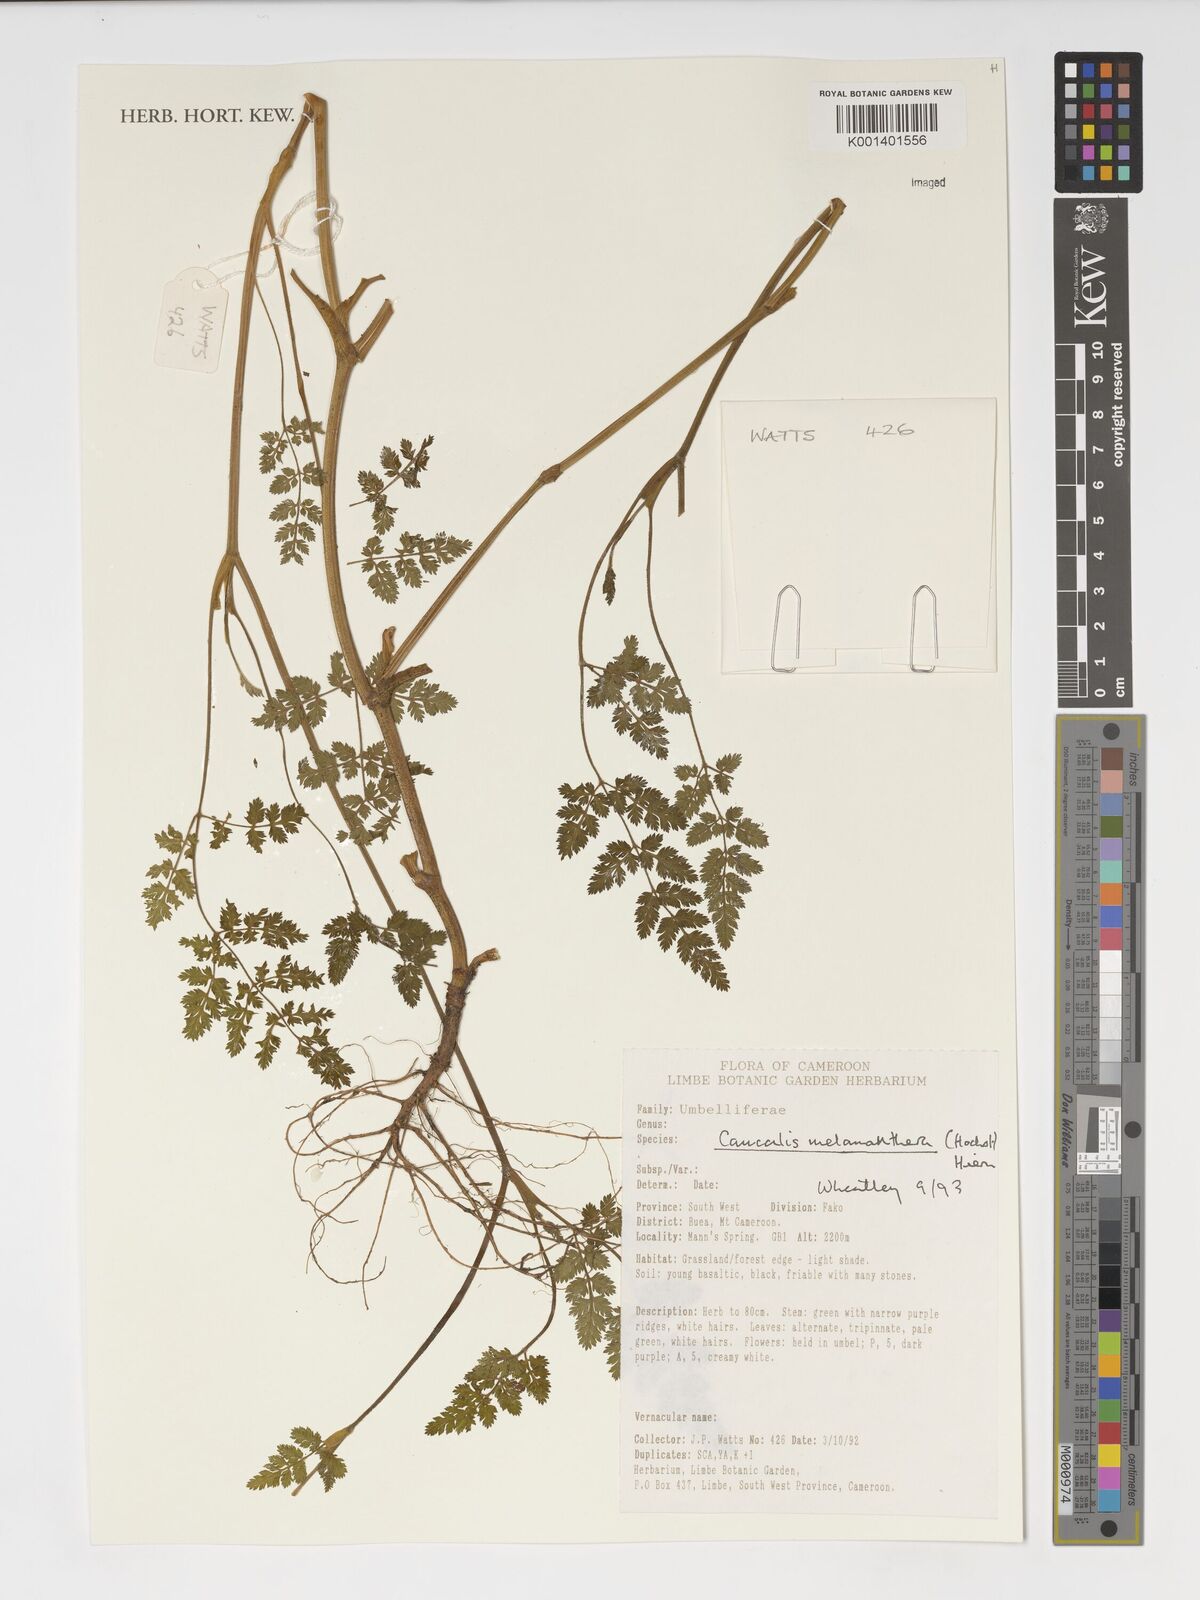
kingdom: Plantae
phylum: Tracheophyta
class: Magnoliopsida
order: Apiales
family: Apiaceae
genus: Daucus
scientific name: Daucus melananthus
